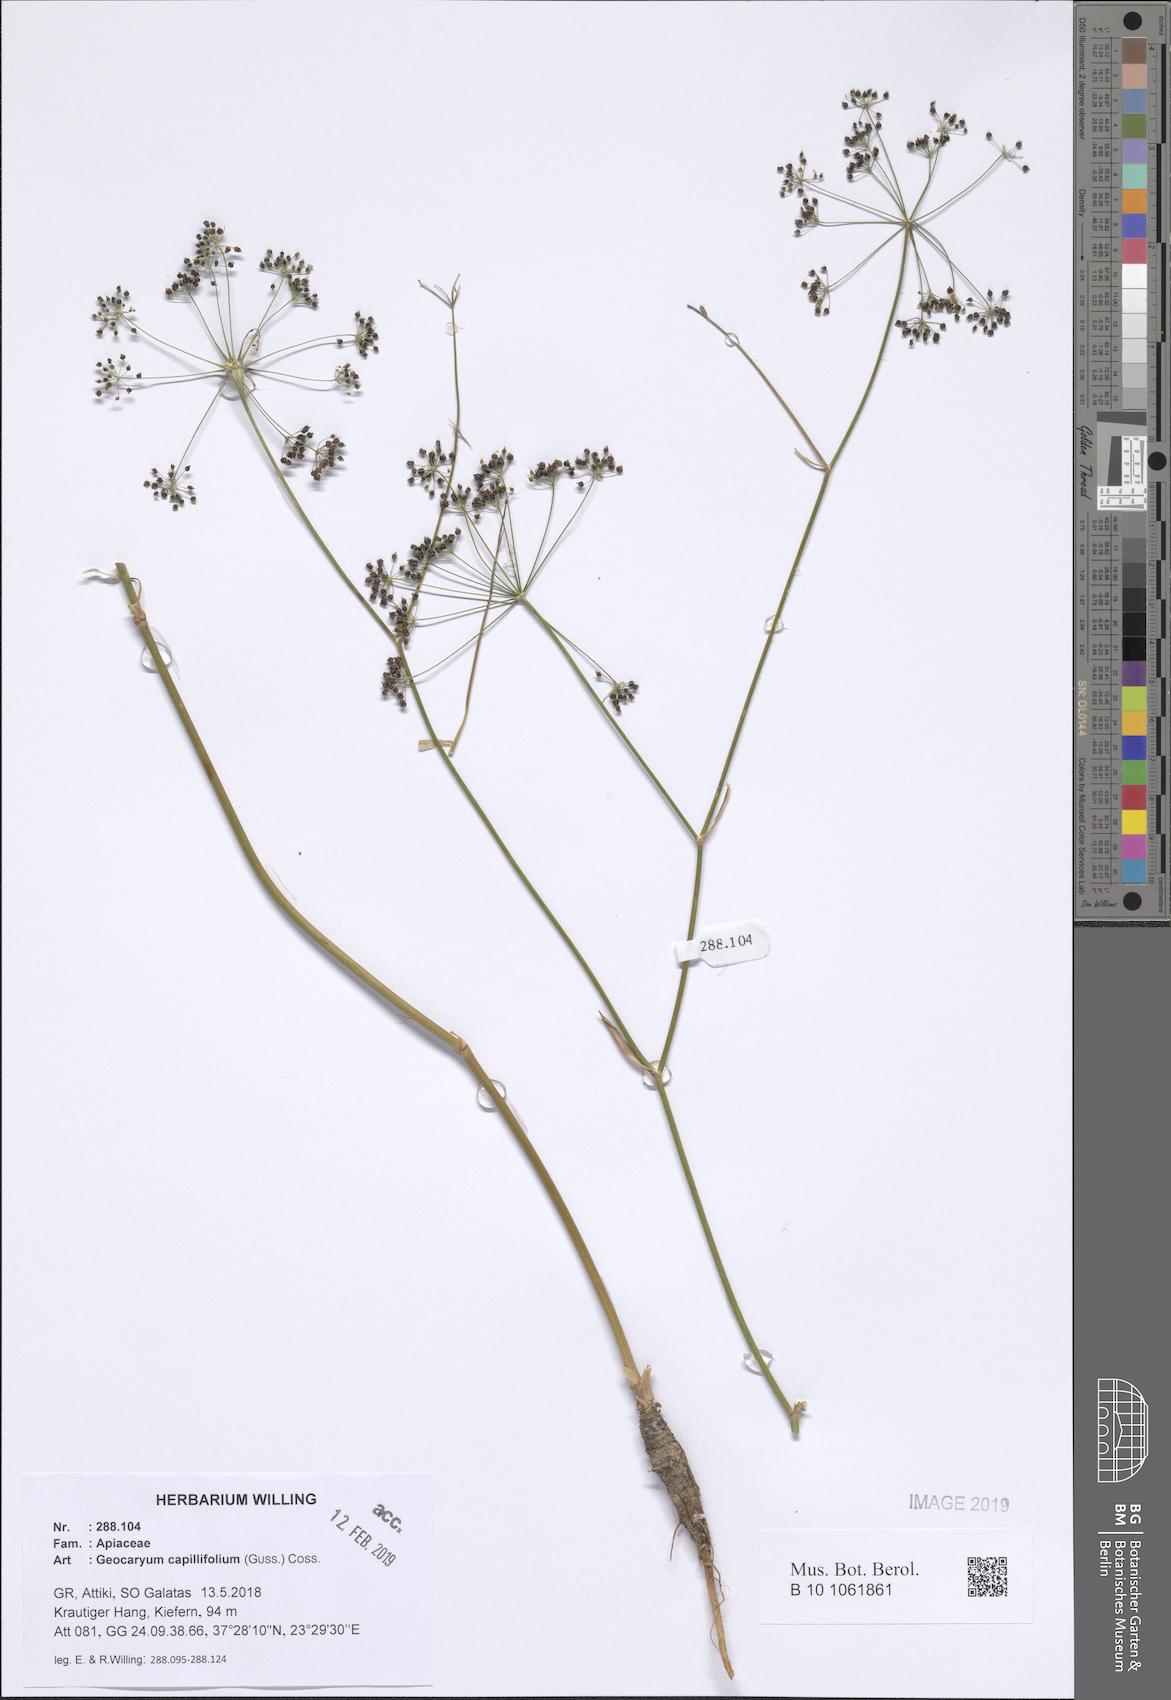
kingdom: Plantae
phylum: Tracheophyta
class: Magnoliopsida
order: Apiales
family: Apiaceae
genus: Geocaryum
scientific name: Geocaryum capillifolium
